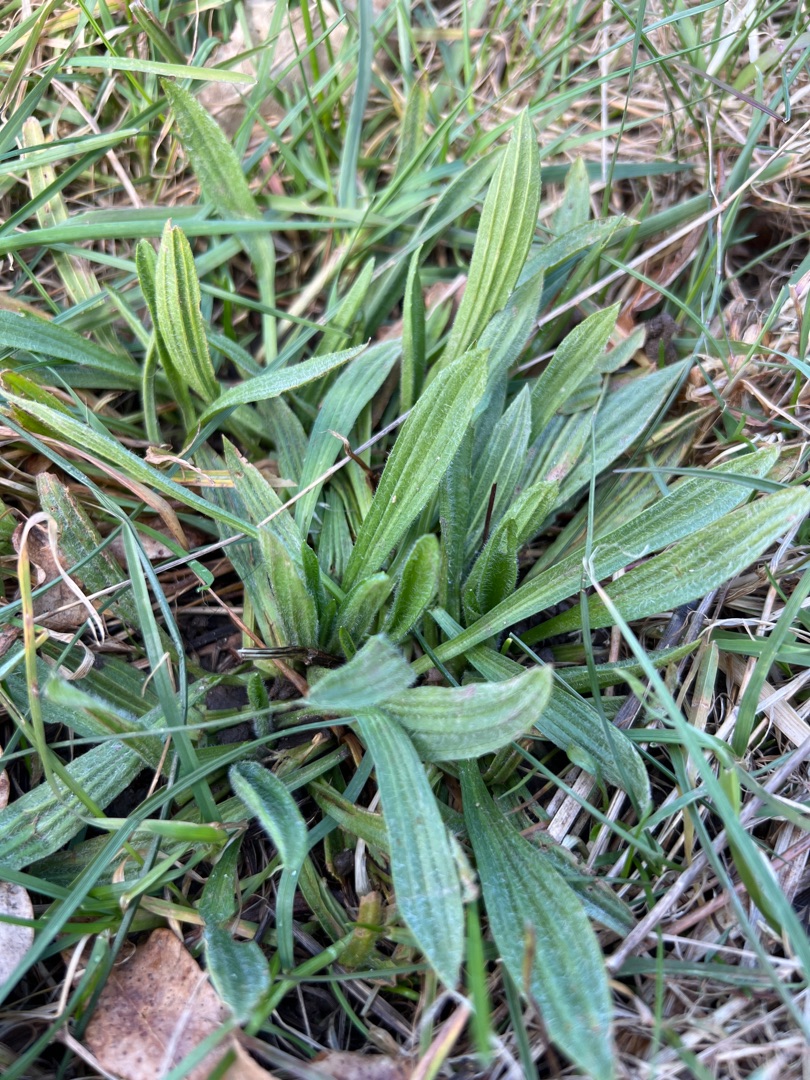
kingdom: Plantae
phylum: Tracheophyta
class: Magnoliopsida
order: Lamiales
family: Plantaginaceae
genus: Plantago
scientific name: Plantago lanceolata
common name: Lancet-vejbred
